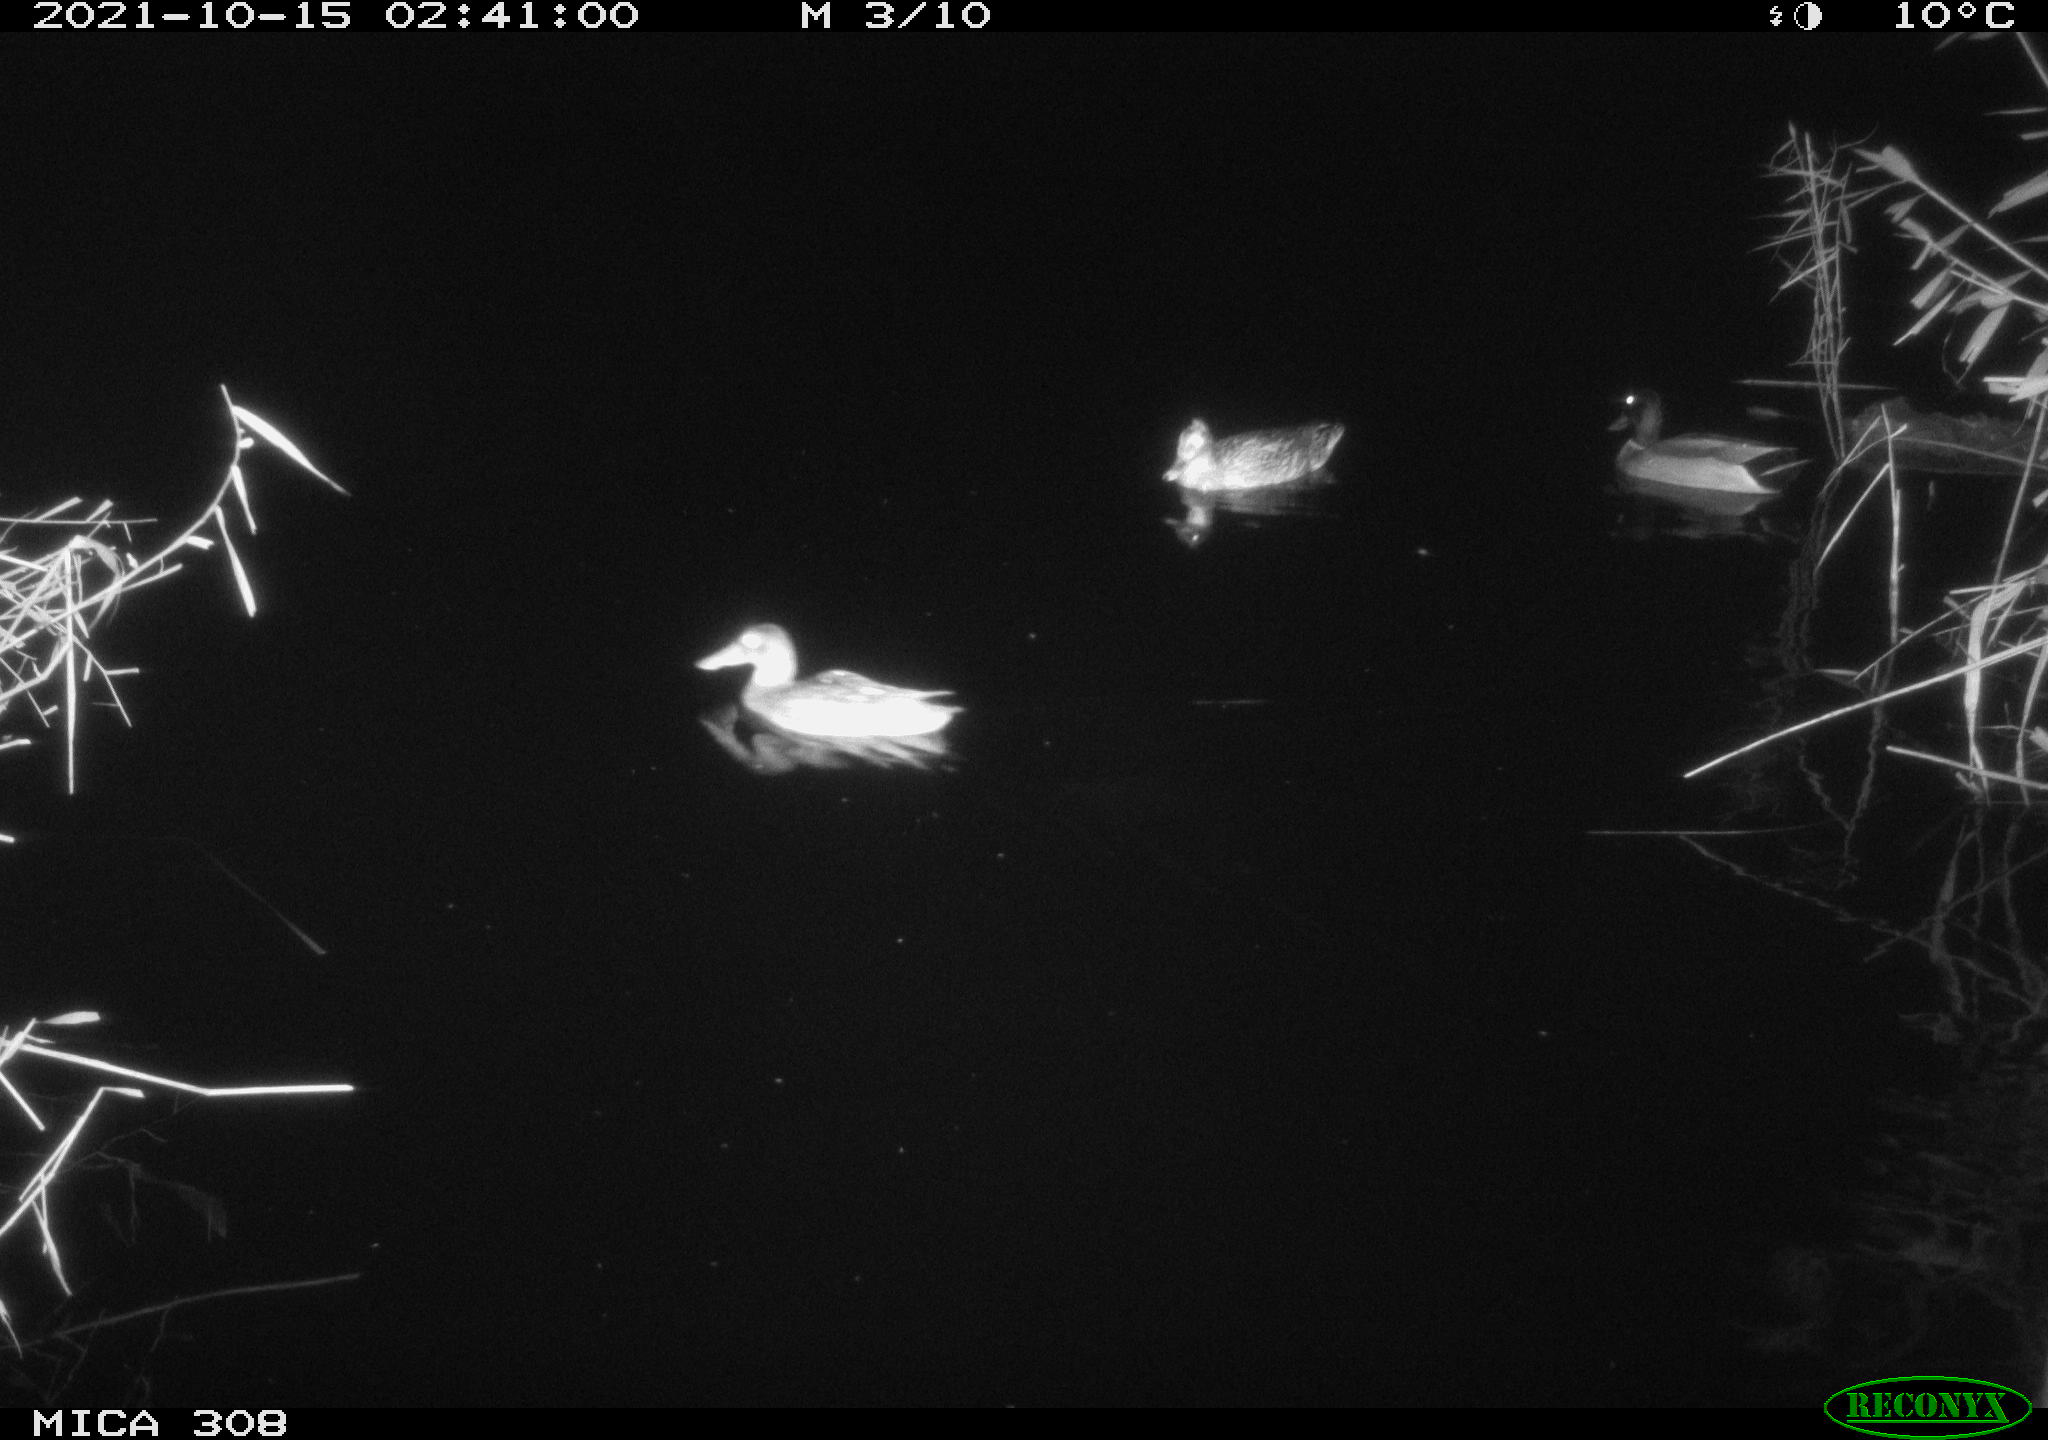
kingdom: Animalia
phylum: Chordata
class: Aves
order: Anseriformes
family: Anatidae
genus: Spatula
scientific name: Spatula clypeata
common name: Northern shoveler
